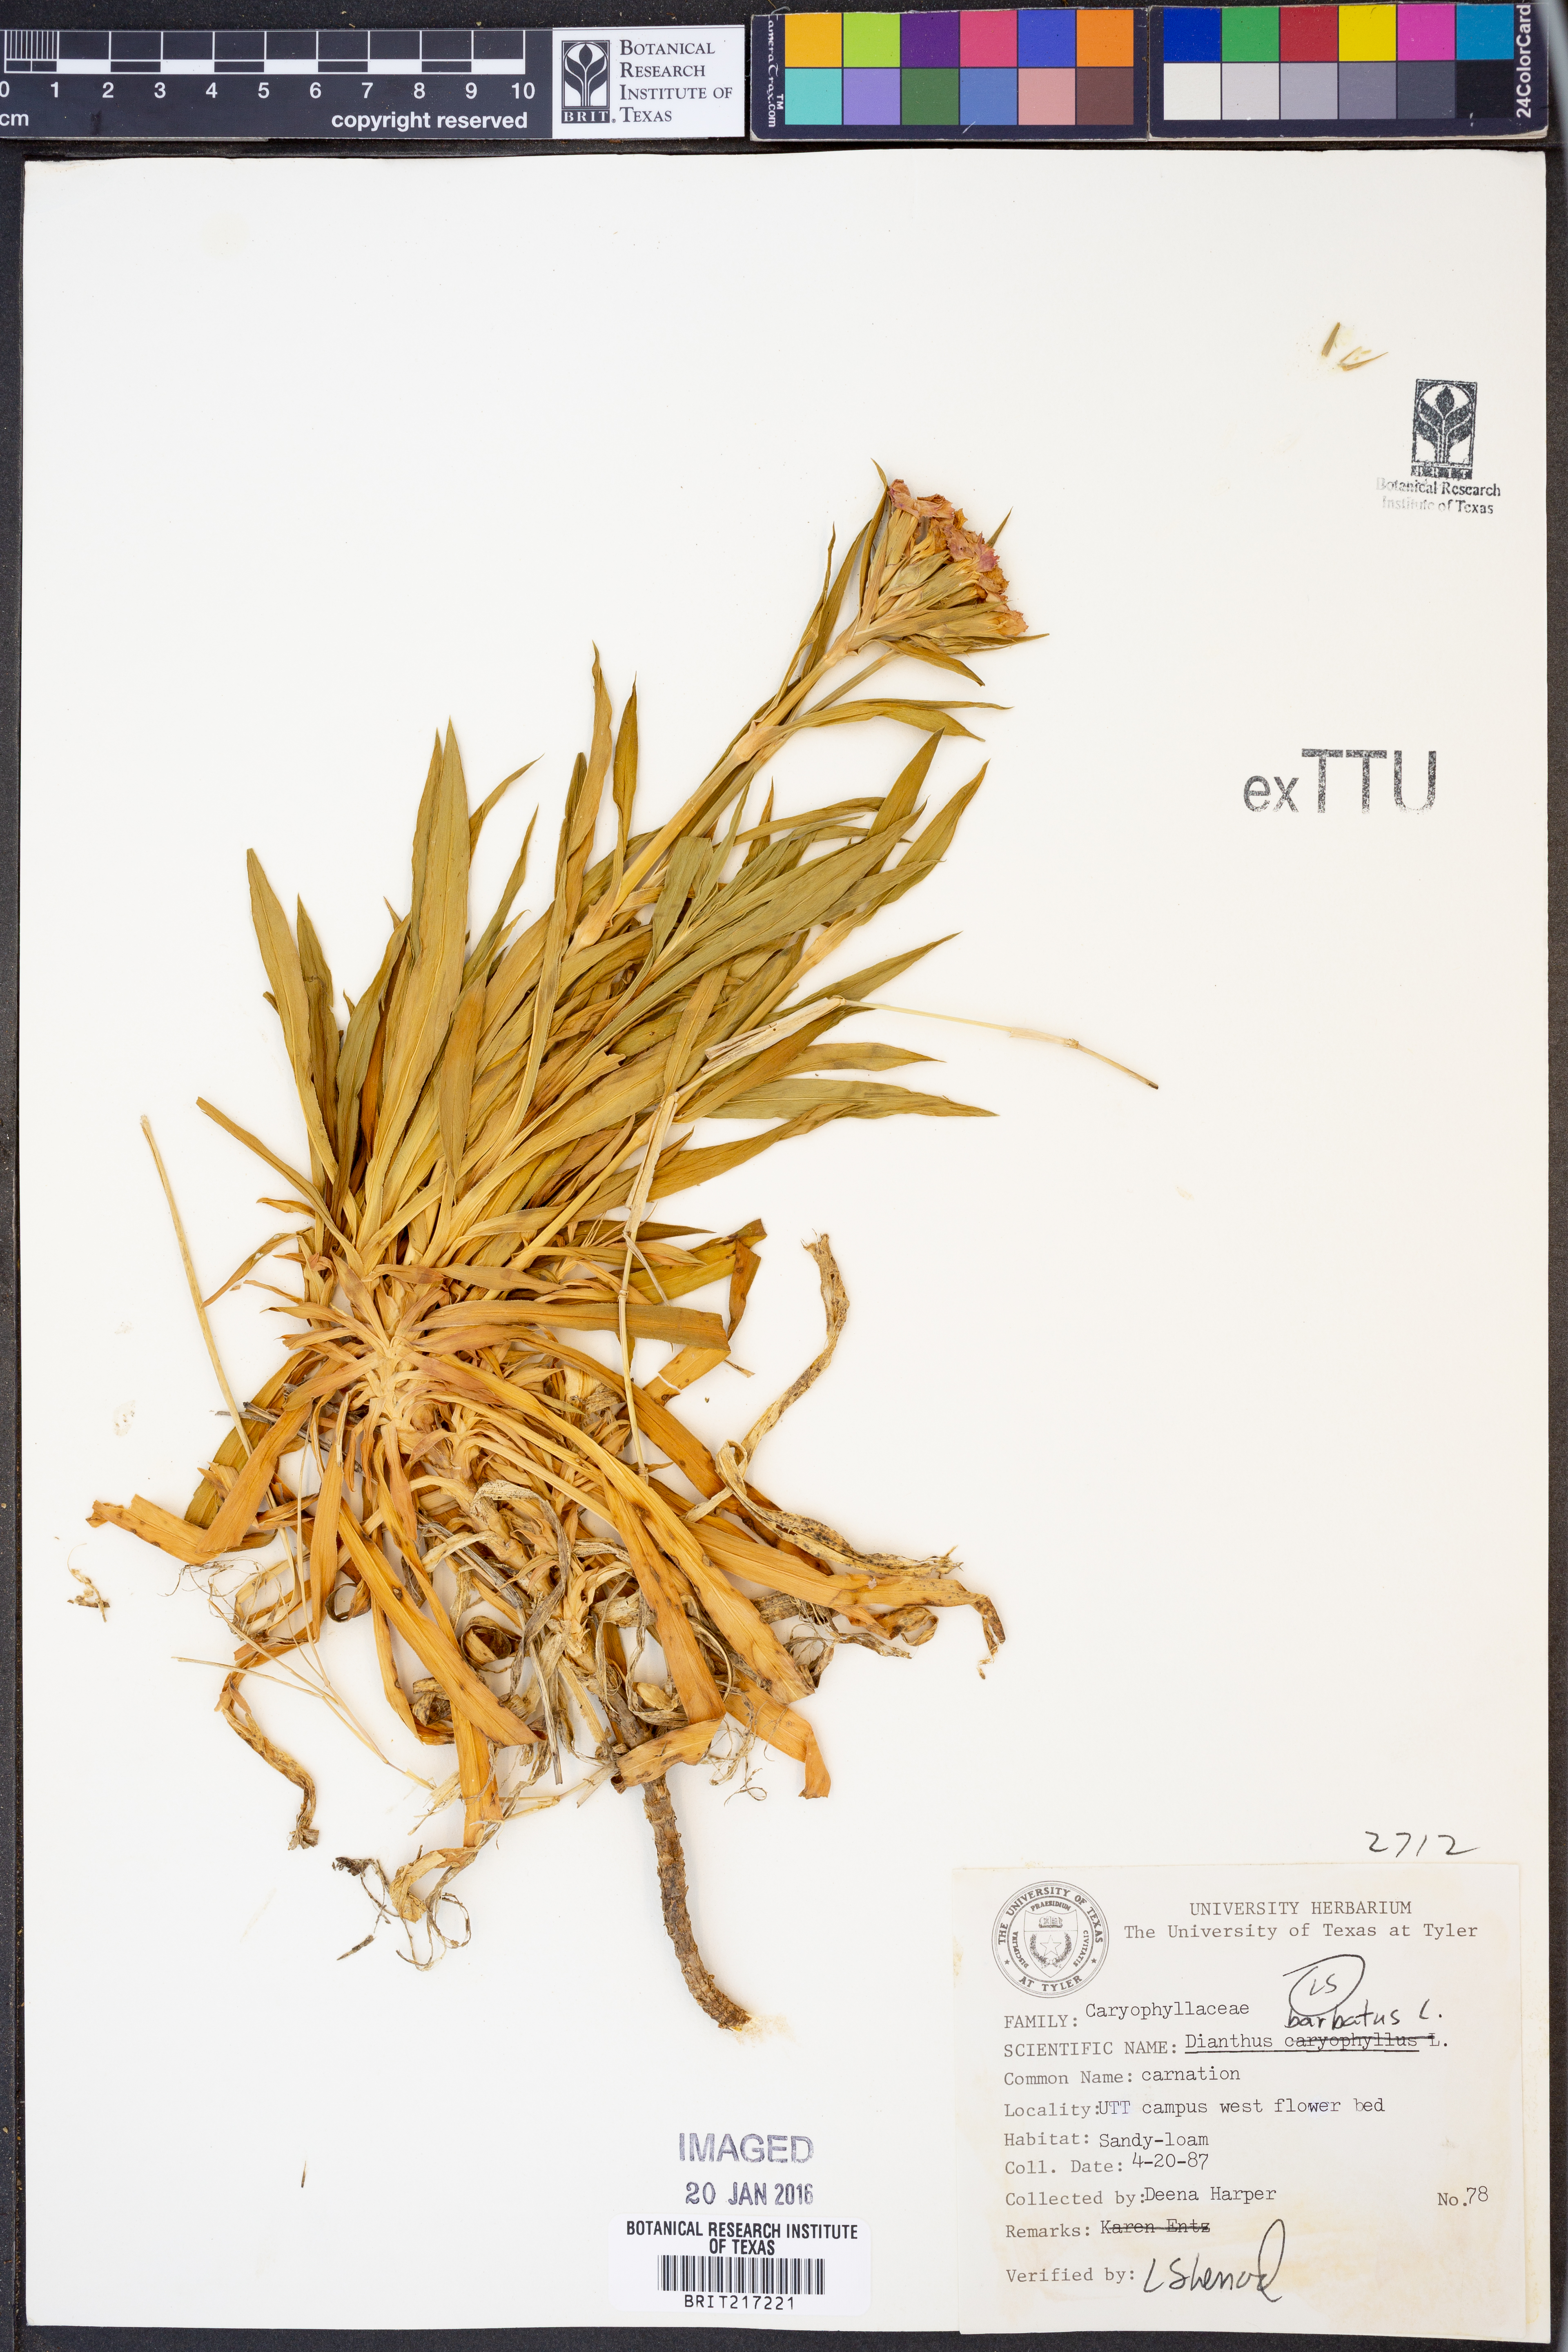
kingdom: Plantae
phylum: Tracheophyta
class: Magnoliopsida
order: Caryophyllales
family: Caryophyllaceae
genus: Dianthus
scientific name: Dianthus barbatus
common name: Sweet-william
